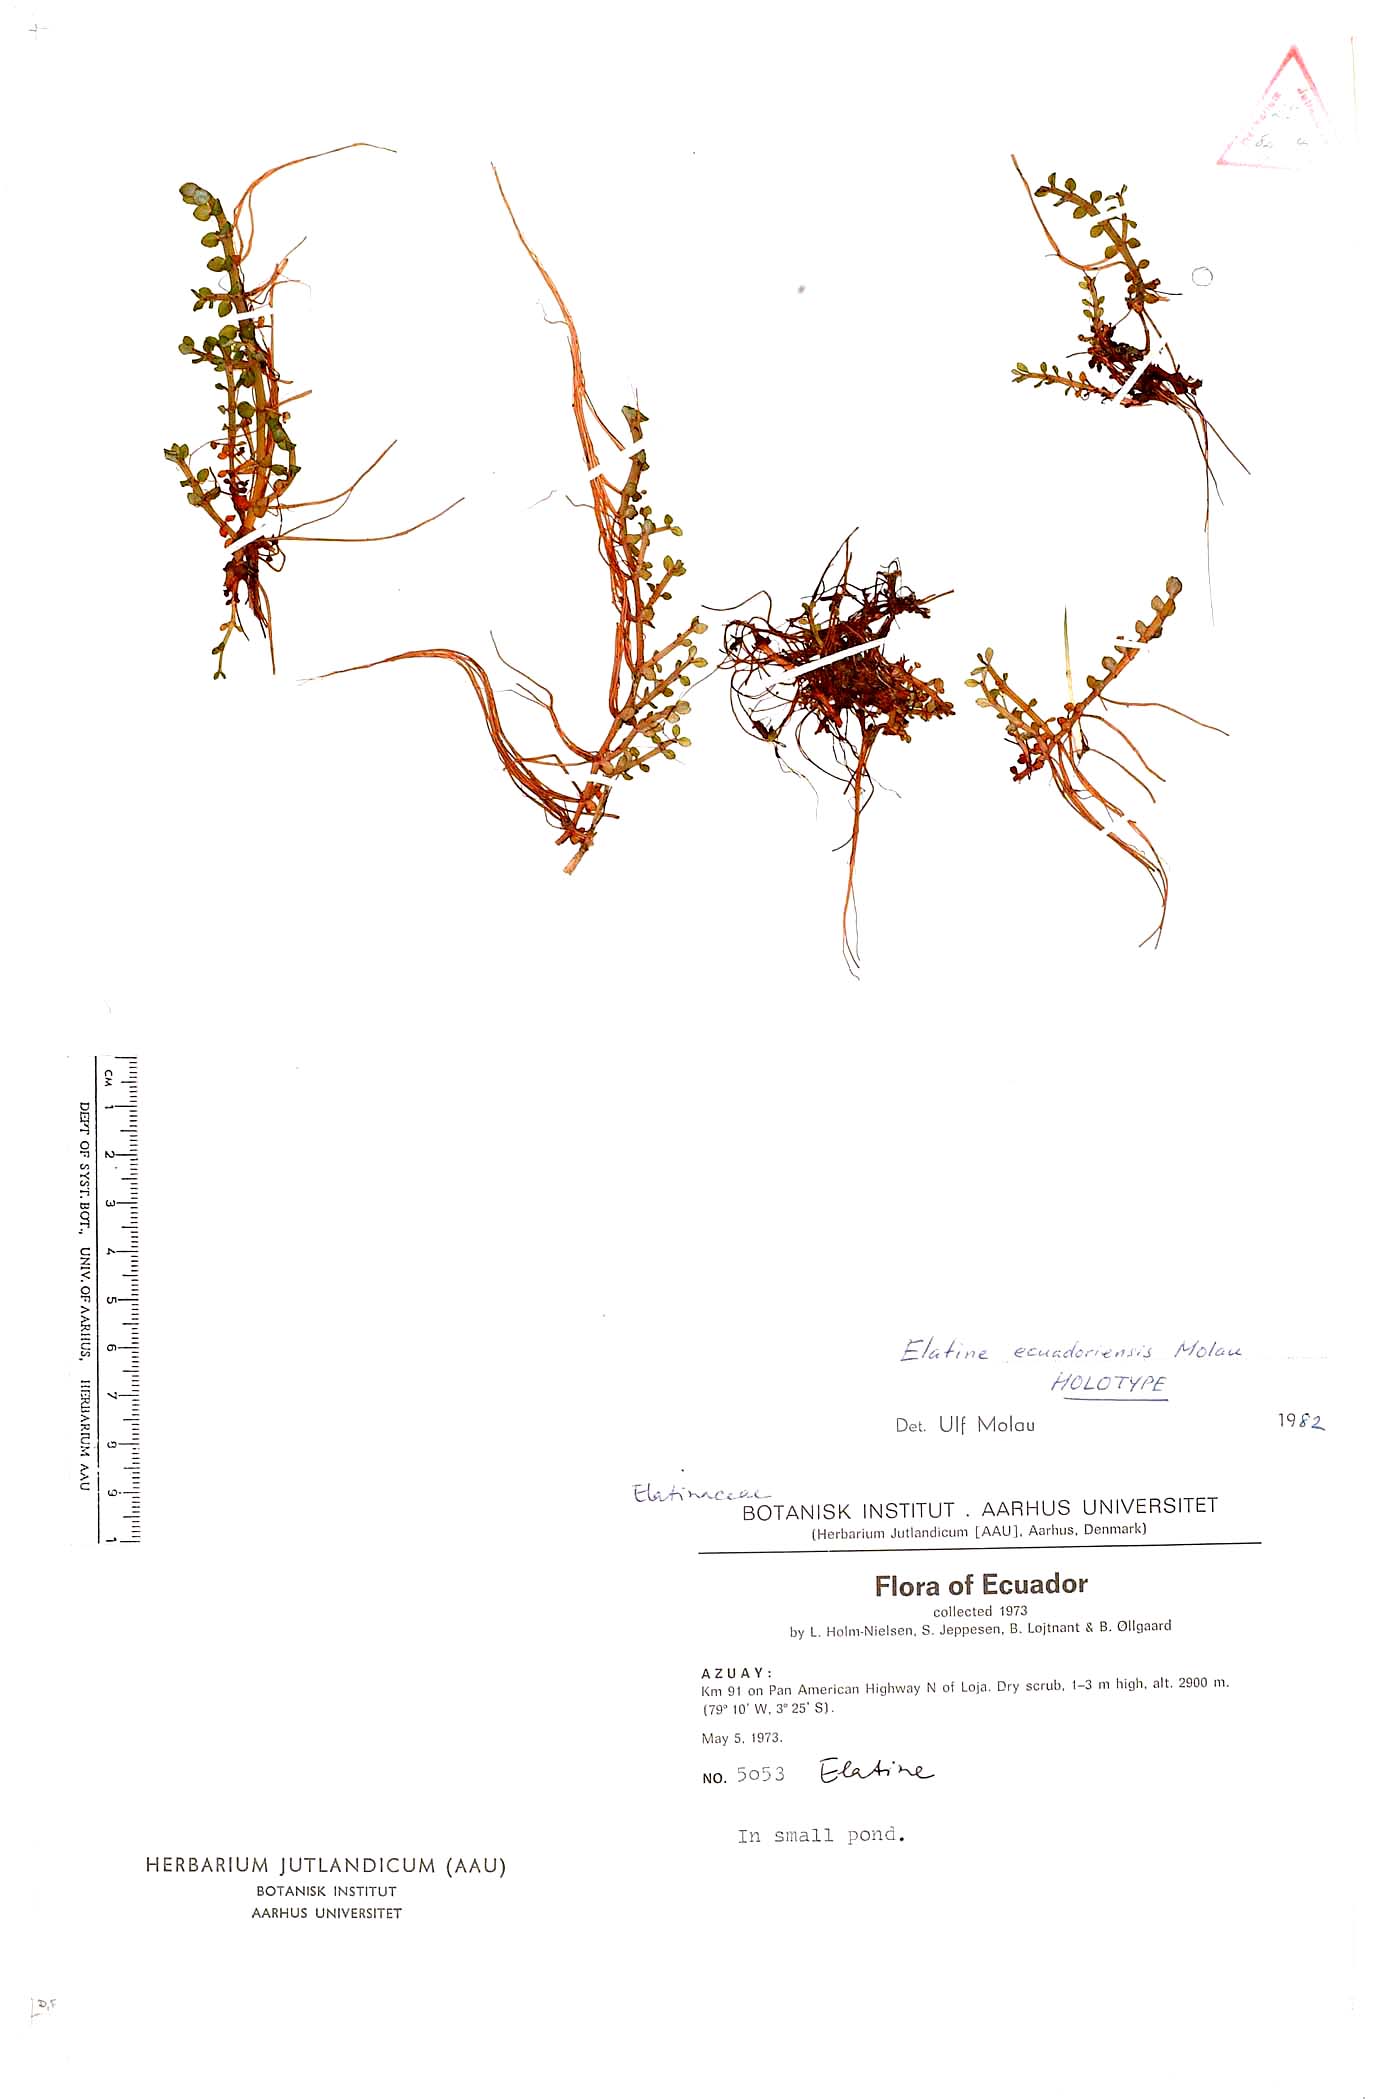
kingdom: Plantae
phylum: Tracheophyta
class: Magnoliopsida
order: Malpighiales
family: Elatinaceae
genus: Elatine
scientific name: Elatine ecuadoriensis
